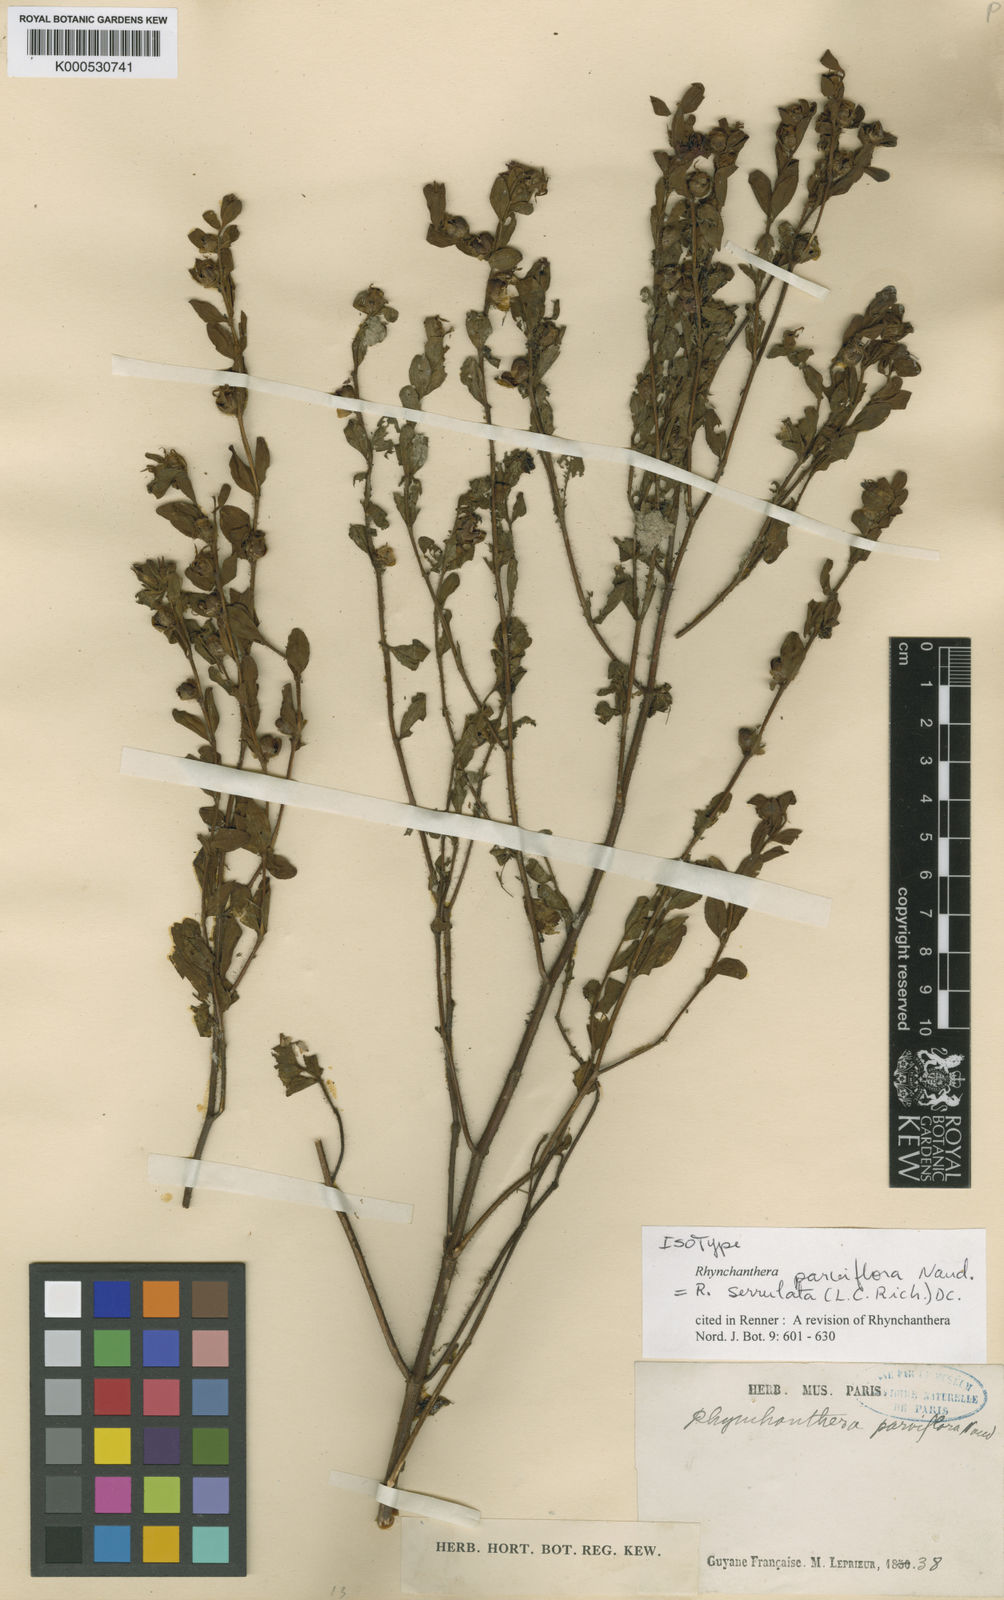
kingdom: Plantae
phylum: Tracheophyta
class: Magnoliopsida
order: Myrtales
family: Melastomataceae
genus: Rhynchanthera
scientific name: Rhynchanthera serrulata
